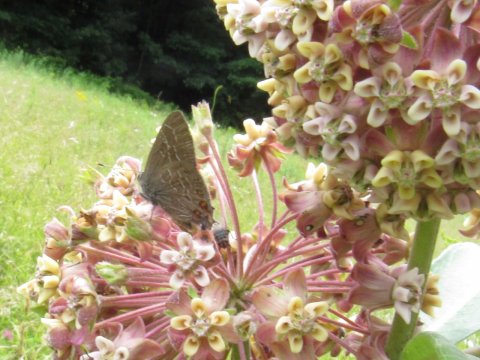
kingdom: Animalia
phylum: Arthropoda
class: Insecta
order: Lepidoptera
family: Lycaenidae
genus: Satyrium
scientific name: Satyrium liparops
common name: Striped Hairstreak
